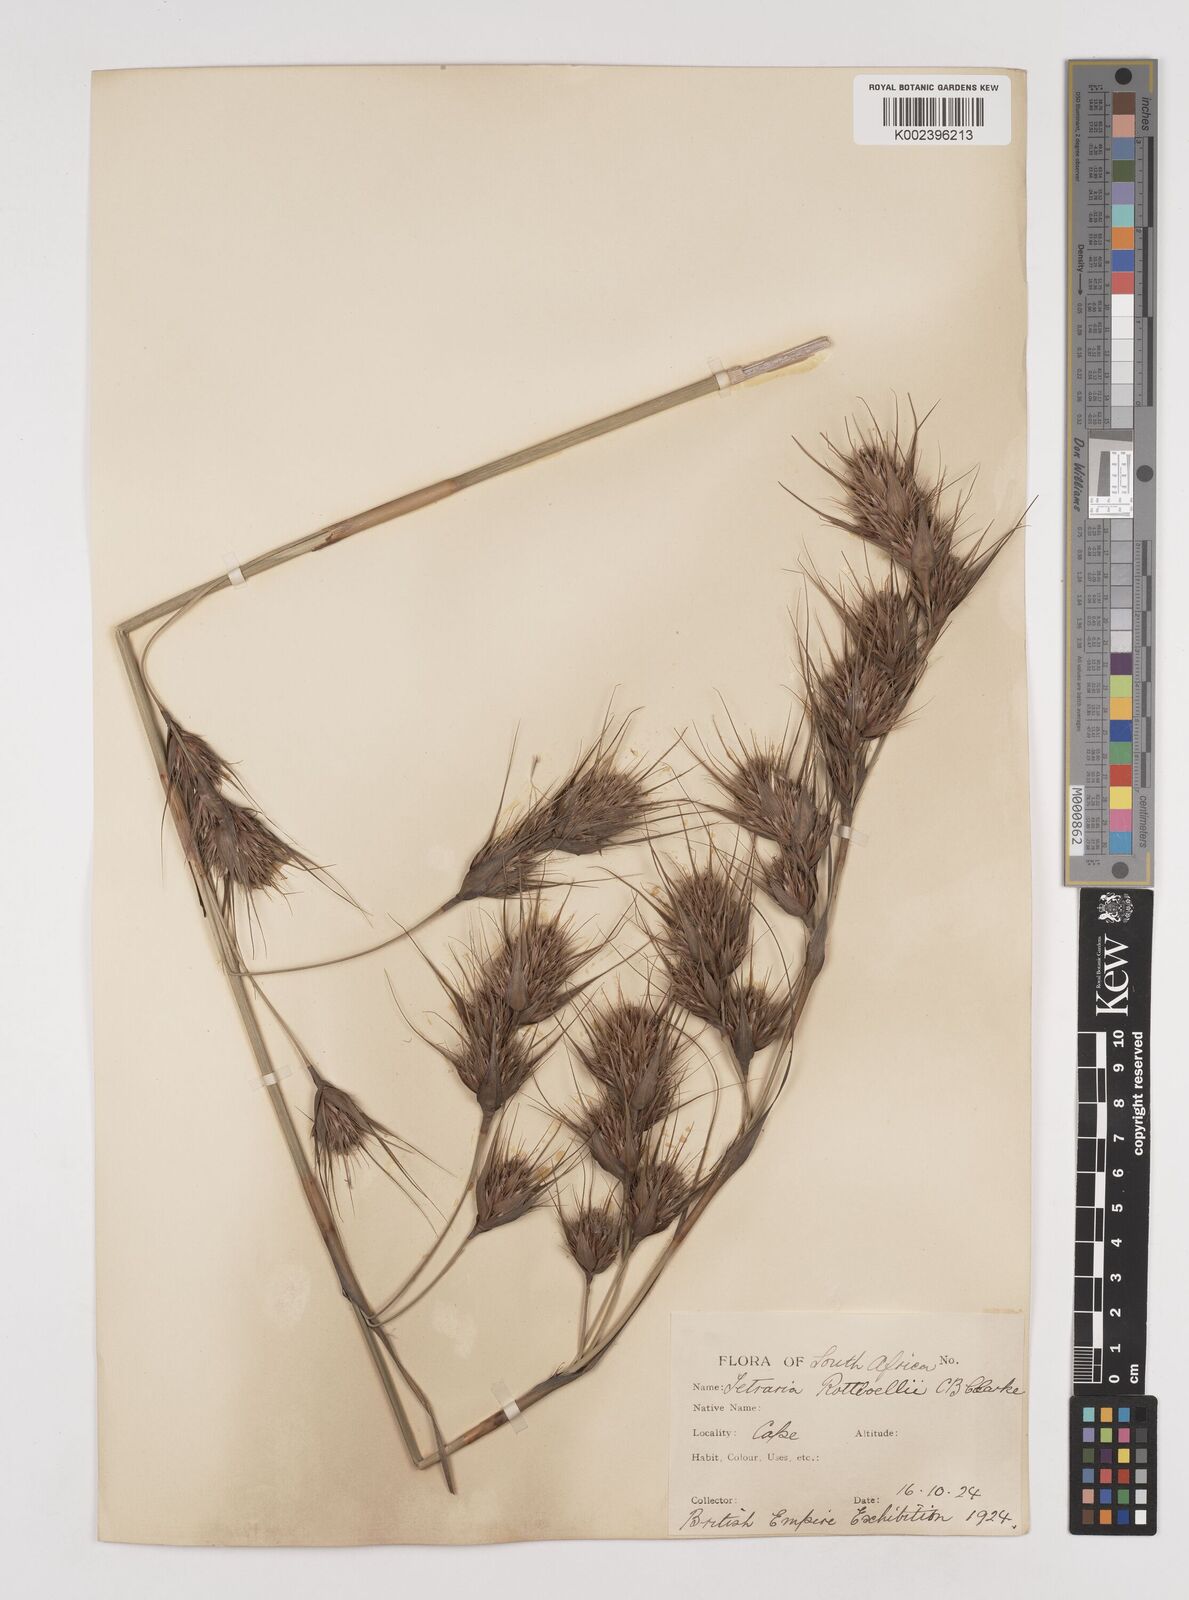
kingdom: Plantae
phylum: Tracheophyta
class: Liliopsida
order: Poales
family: Cyperaceae
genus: Tetraria
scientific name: Tetraria bromoides
